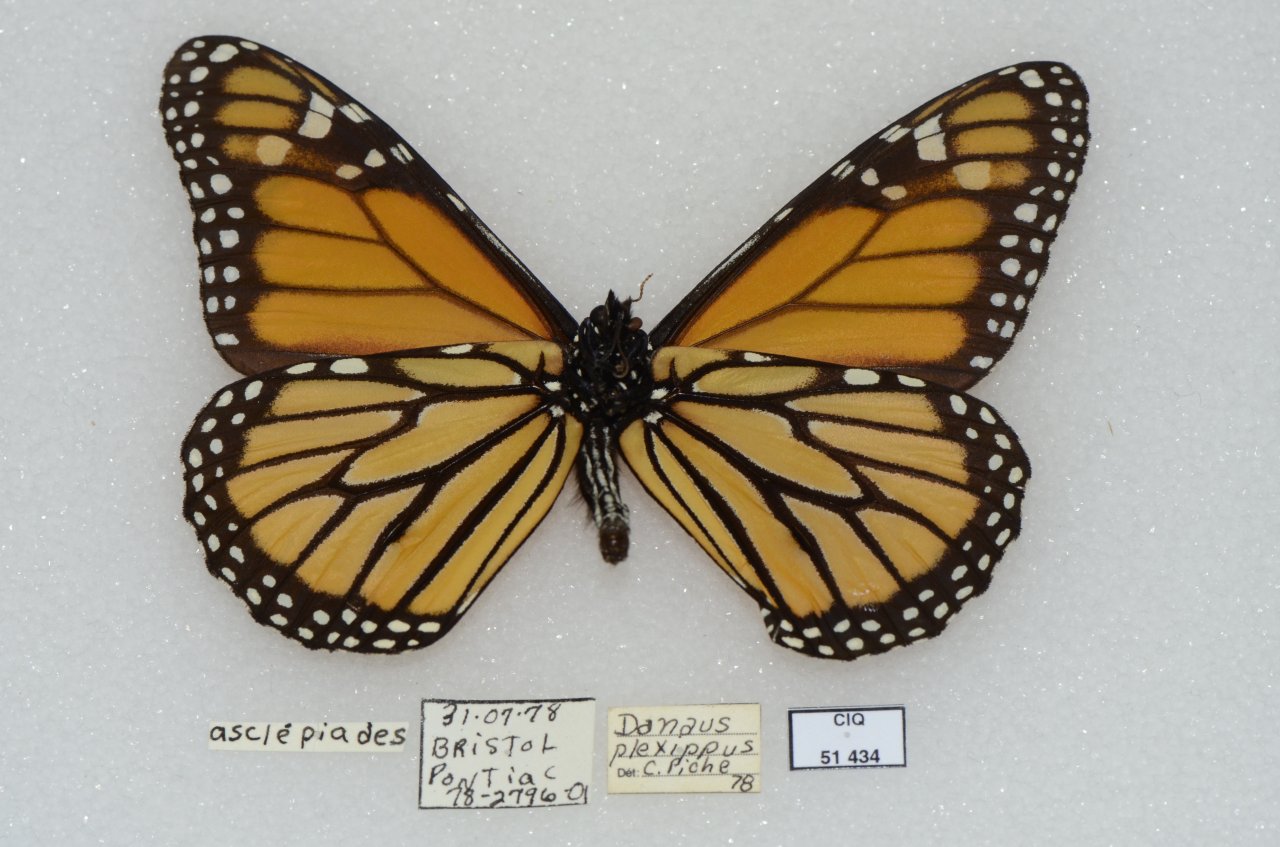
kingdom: Animalia
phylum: Arthropoda
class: Insecta
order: Lepidoptera
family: Nymphalidae
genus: Danaus
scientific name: Danaus plexippus
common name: Monarch
